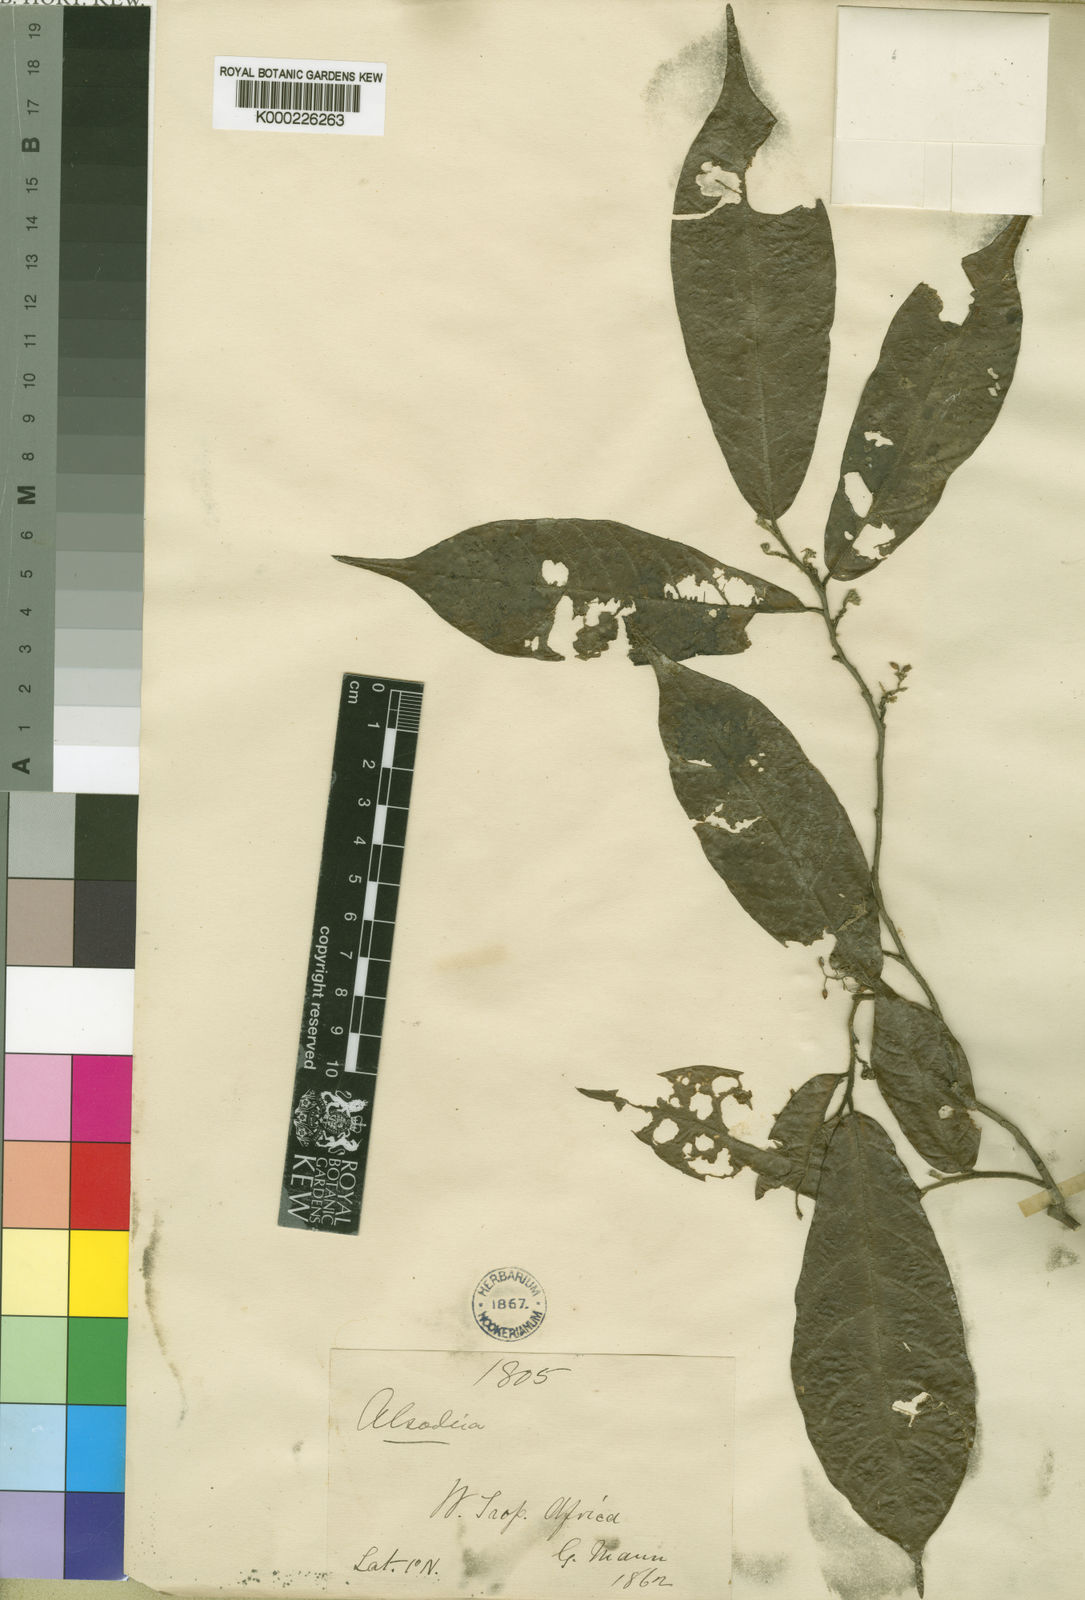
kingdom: Plantae
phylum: Tracheophyta
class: Magnoliopsida
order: Icacinales
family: Icacinaceae
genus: Alsodeiopsis
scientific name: Alsodeiopsis mannii
